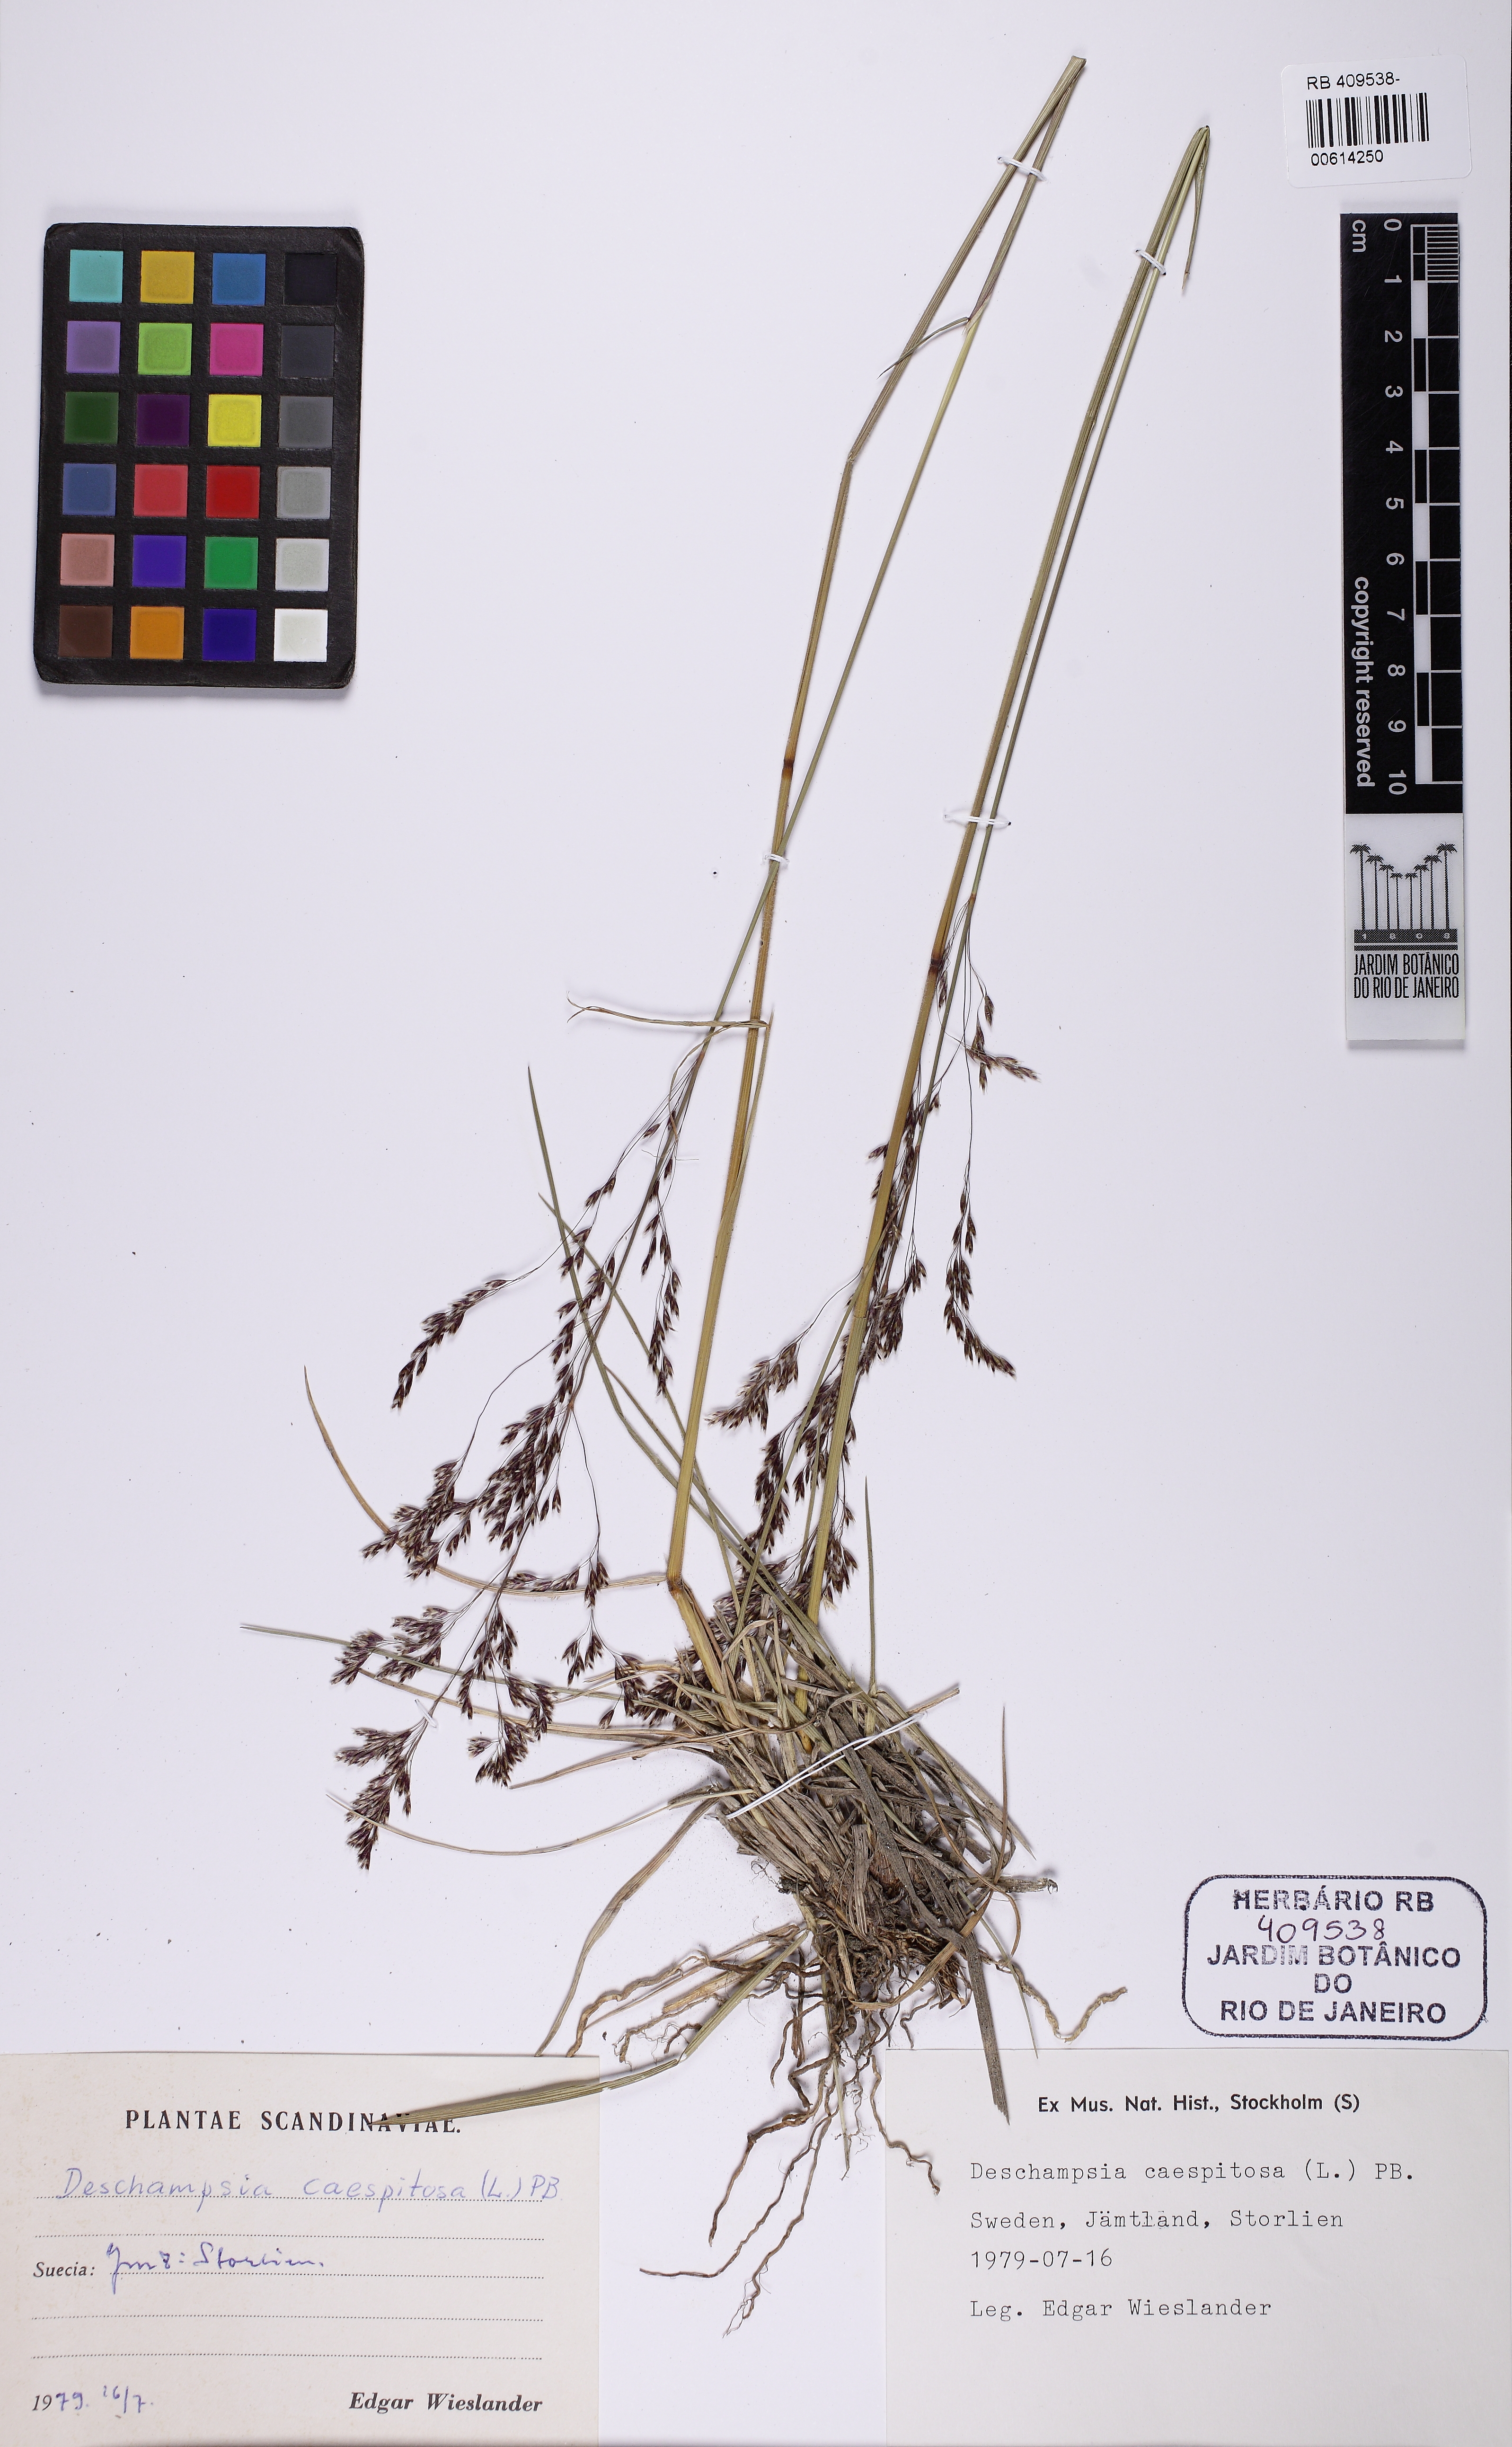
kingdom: Plantae
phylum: Tracheophyta
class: Liliopsida
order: Poales
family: Poaceae
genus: Deschampsia
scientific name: Deschampsia cespitosa
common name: Tufted hair-grass
